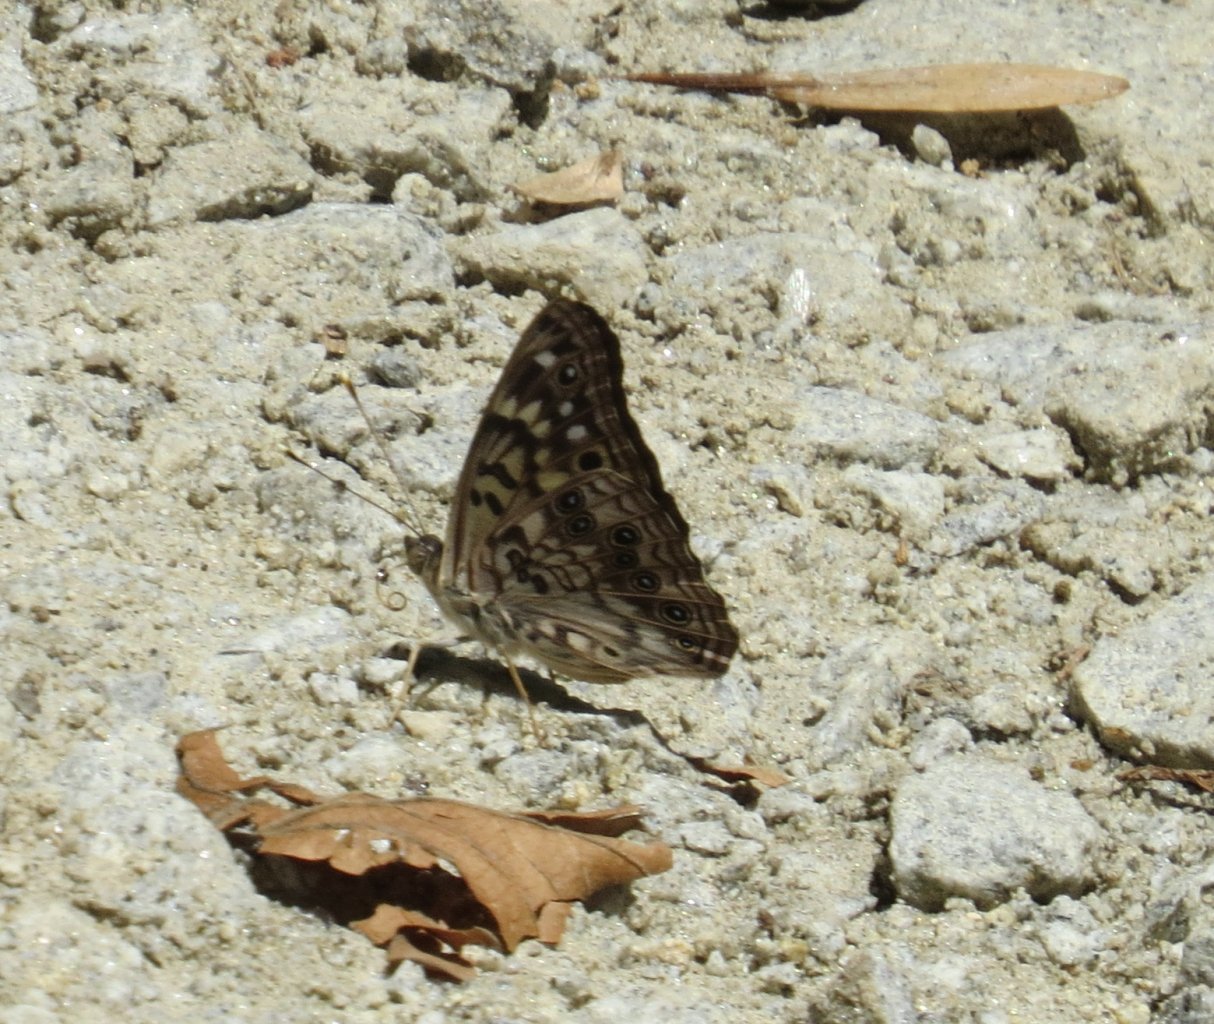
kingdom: Animalia
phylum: Arthropoda
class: Insecta
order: Lepidoptera
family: Nymphalidae
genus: Asterocampa
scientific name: Asterocampa celtis
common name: Hackberry Emperor
